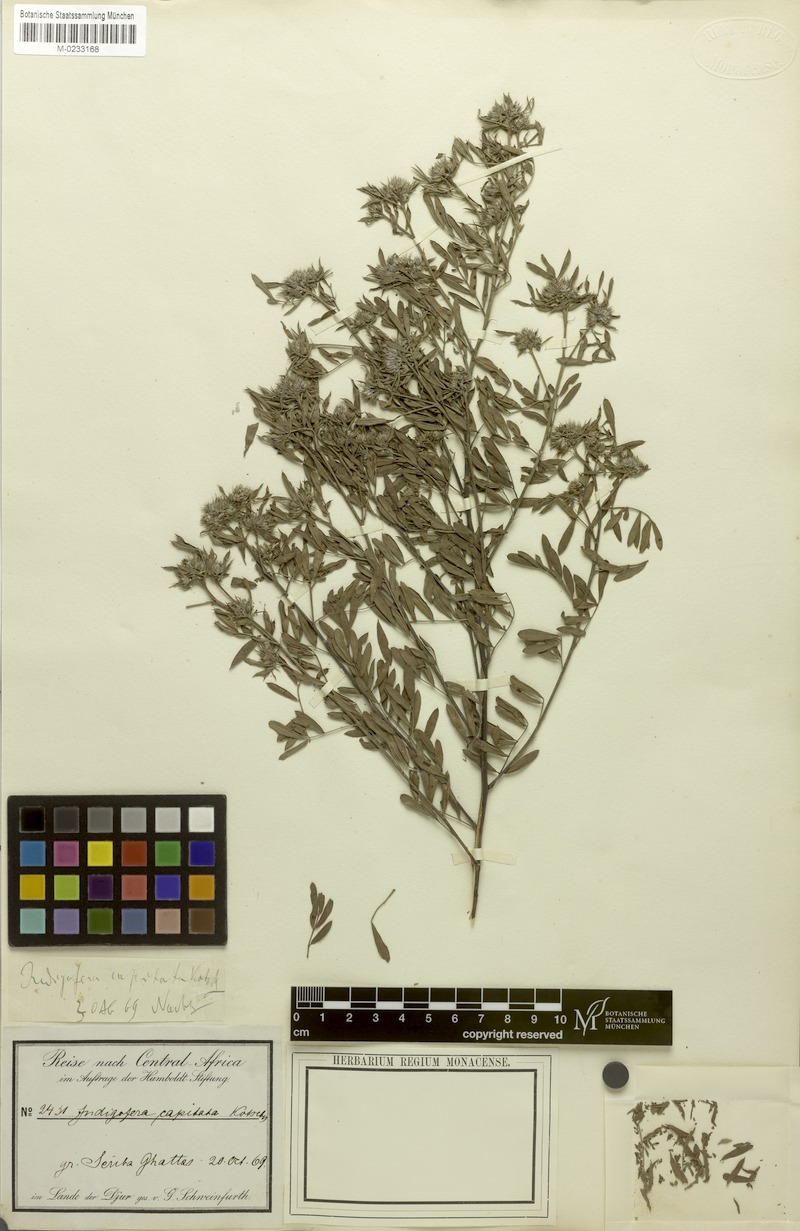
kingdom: Plantae
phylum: Tracheophyta
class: Magnoliopsida
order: Fabales
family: Fabaceae
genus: Indigofera
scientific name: Indigofera capitata
